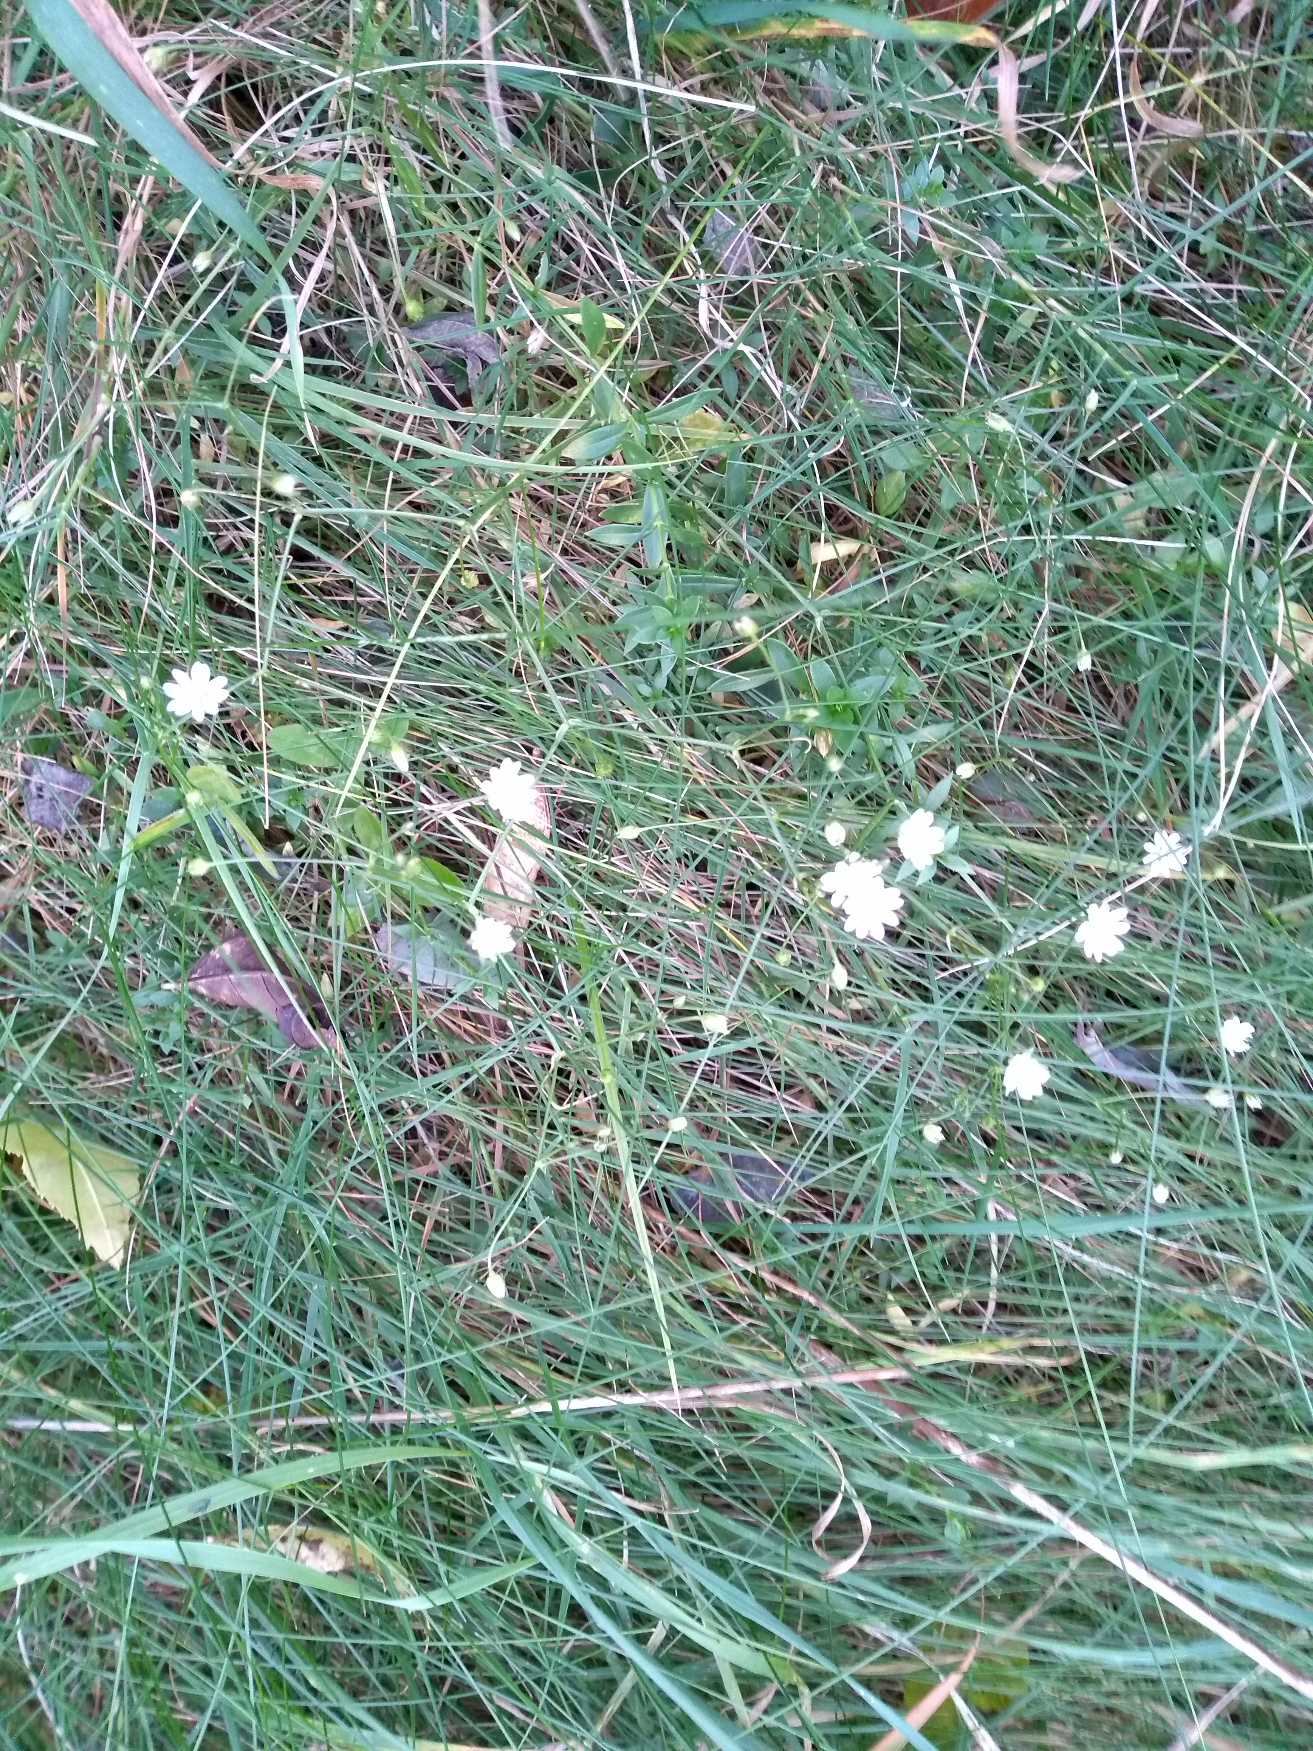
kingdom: Plantae
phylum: Tracheophyta
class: Magnoliopsida
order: Caryophyllales
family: Caryophyllaceae
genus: Stellaria
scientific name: Stellaria graminea
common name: Græsbladet fladstjerne
